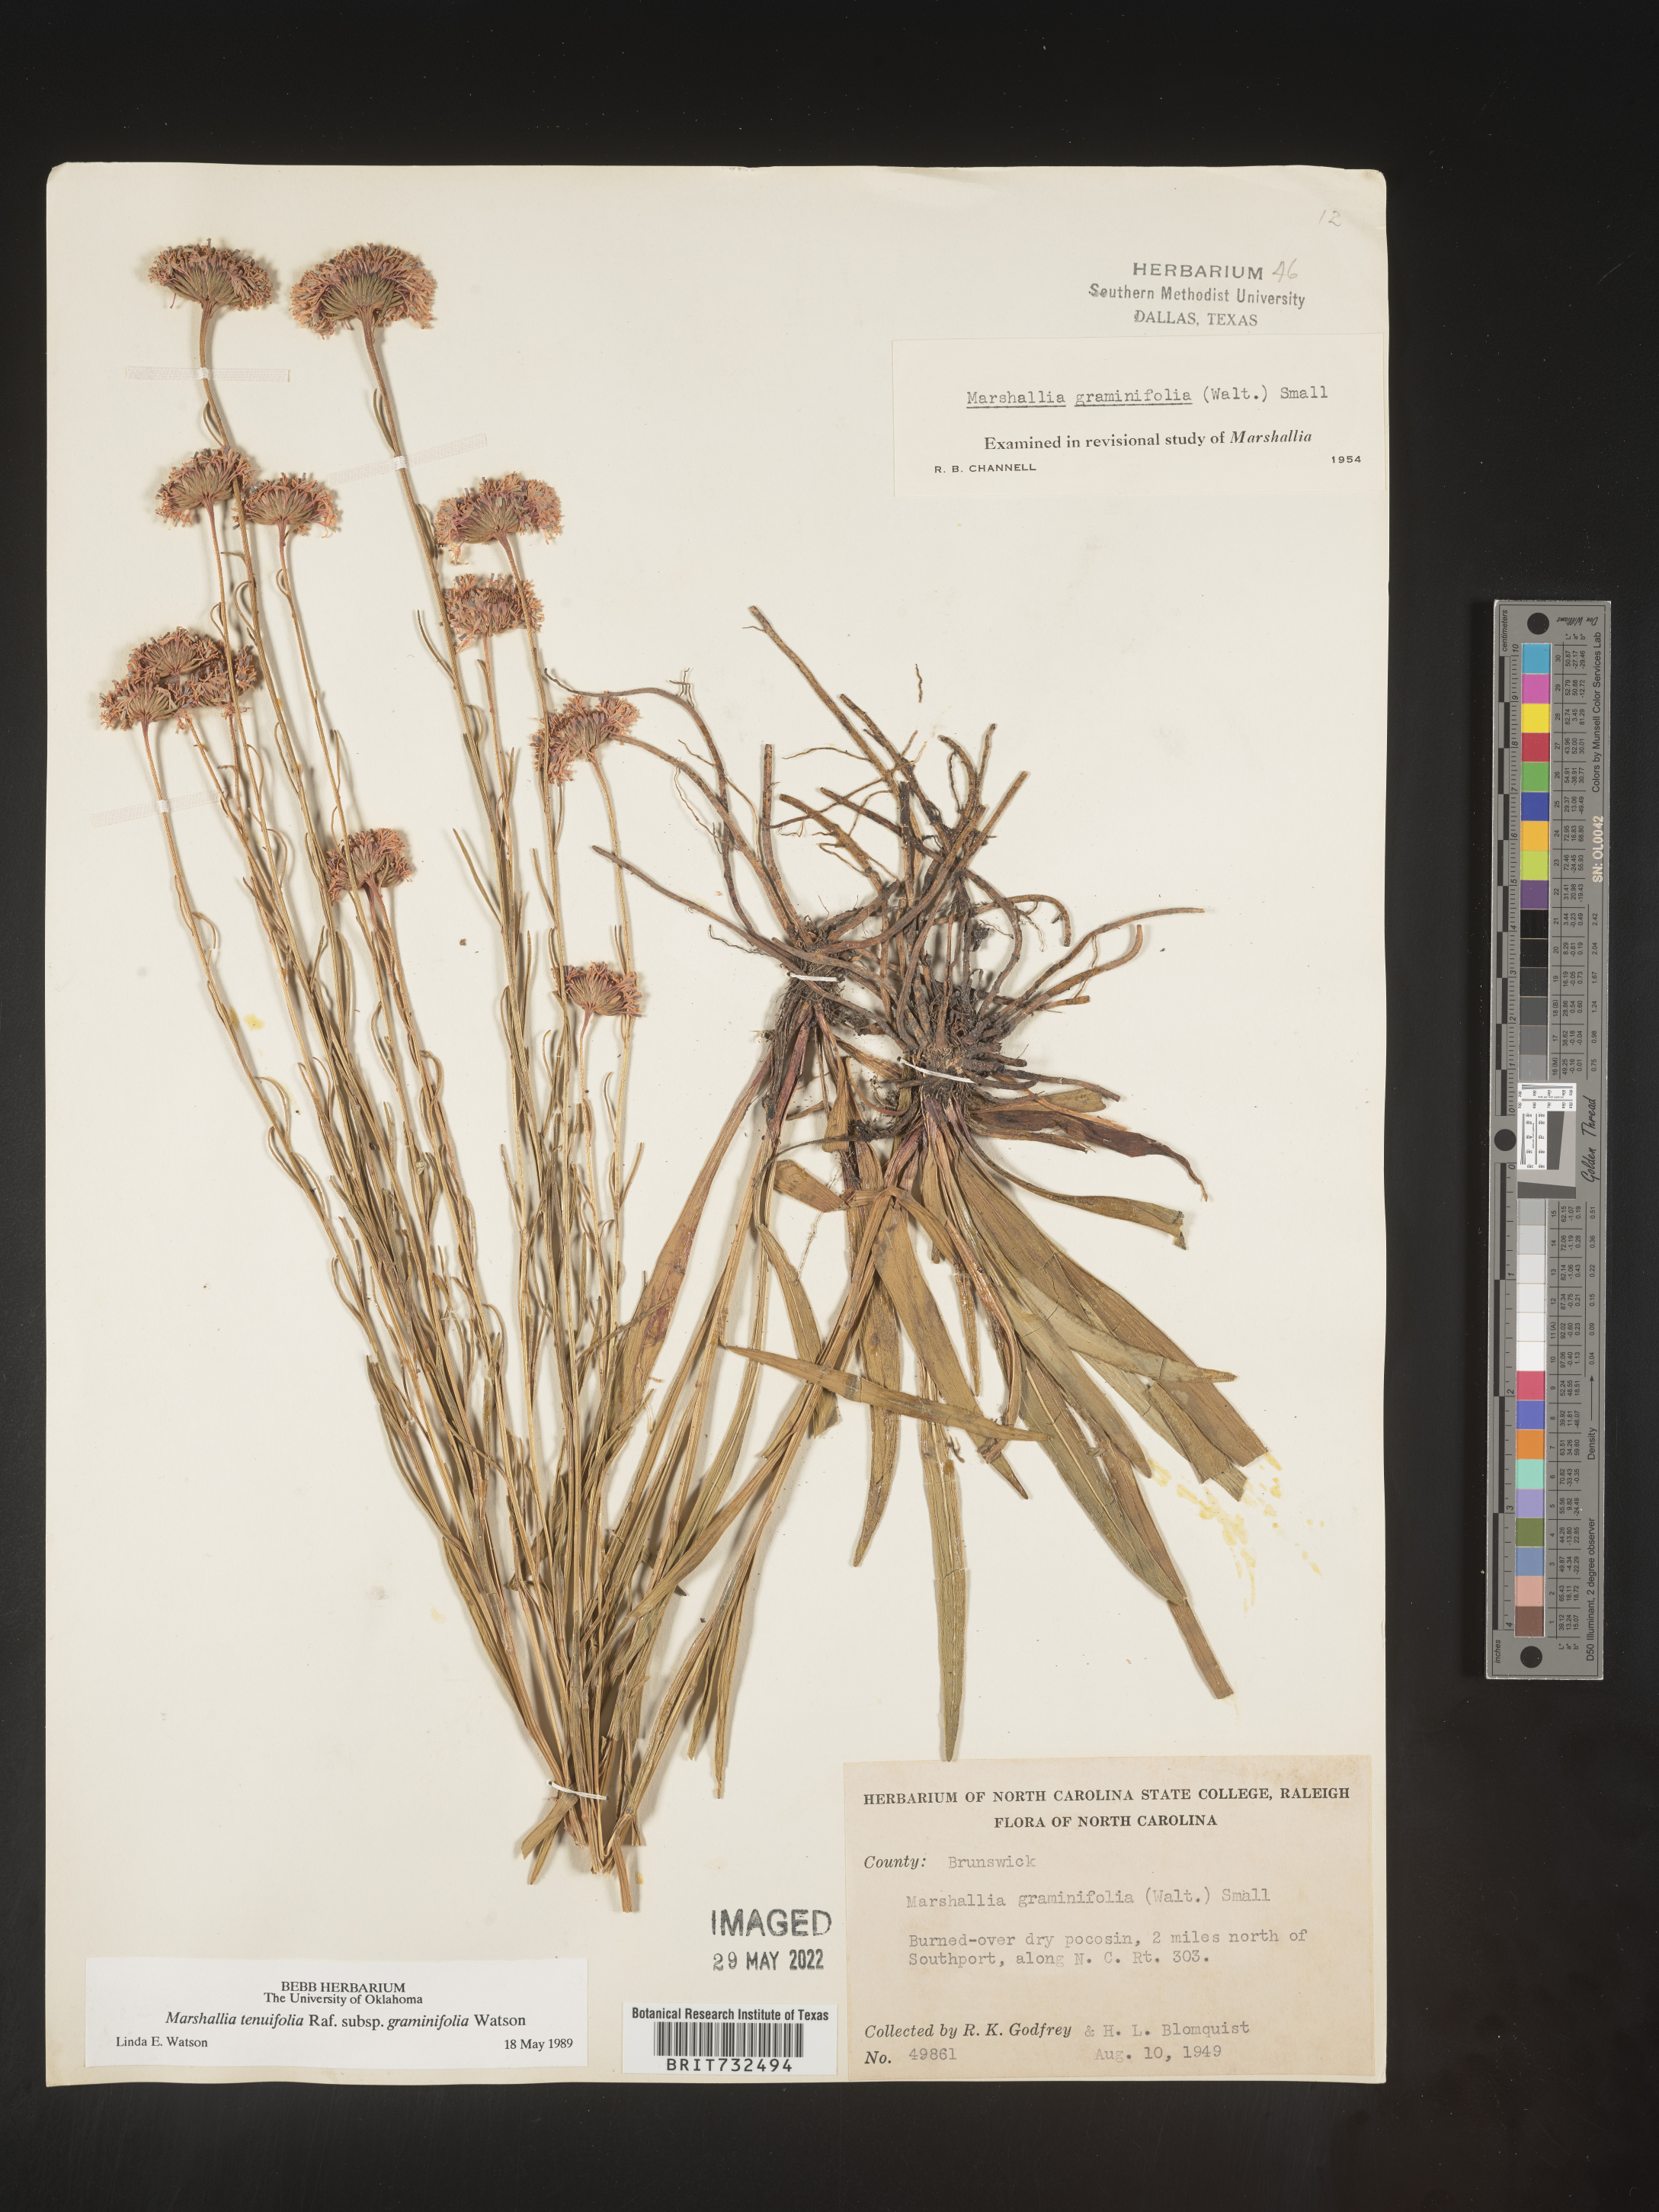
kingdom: Plantae
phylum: Tracheophyta
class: Magnoliopsida
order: Asterales
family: Asteraceae
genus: Marshallia
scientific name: Marshallia graminifolia
